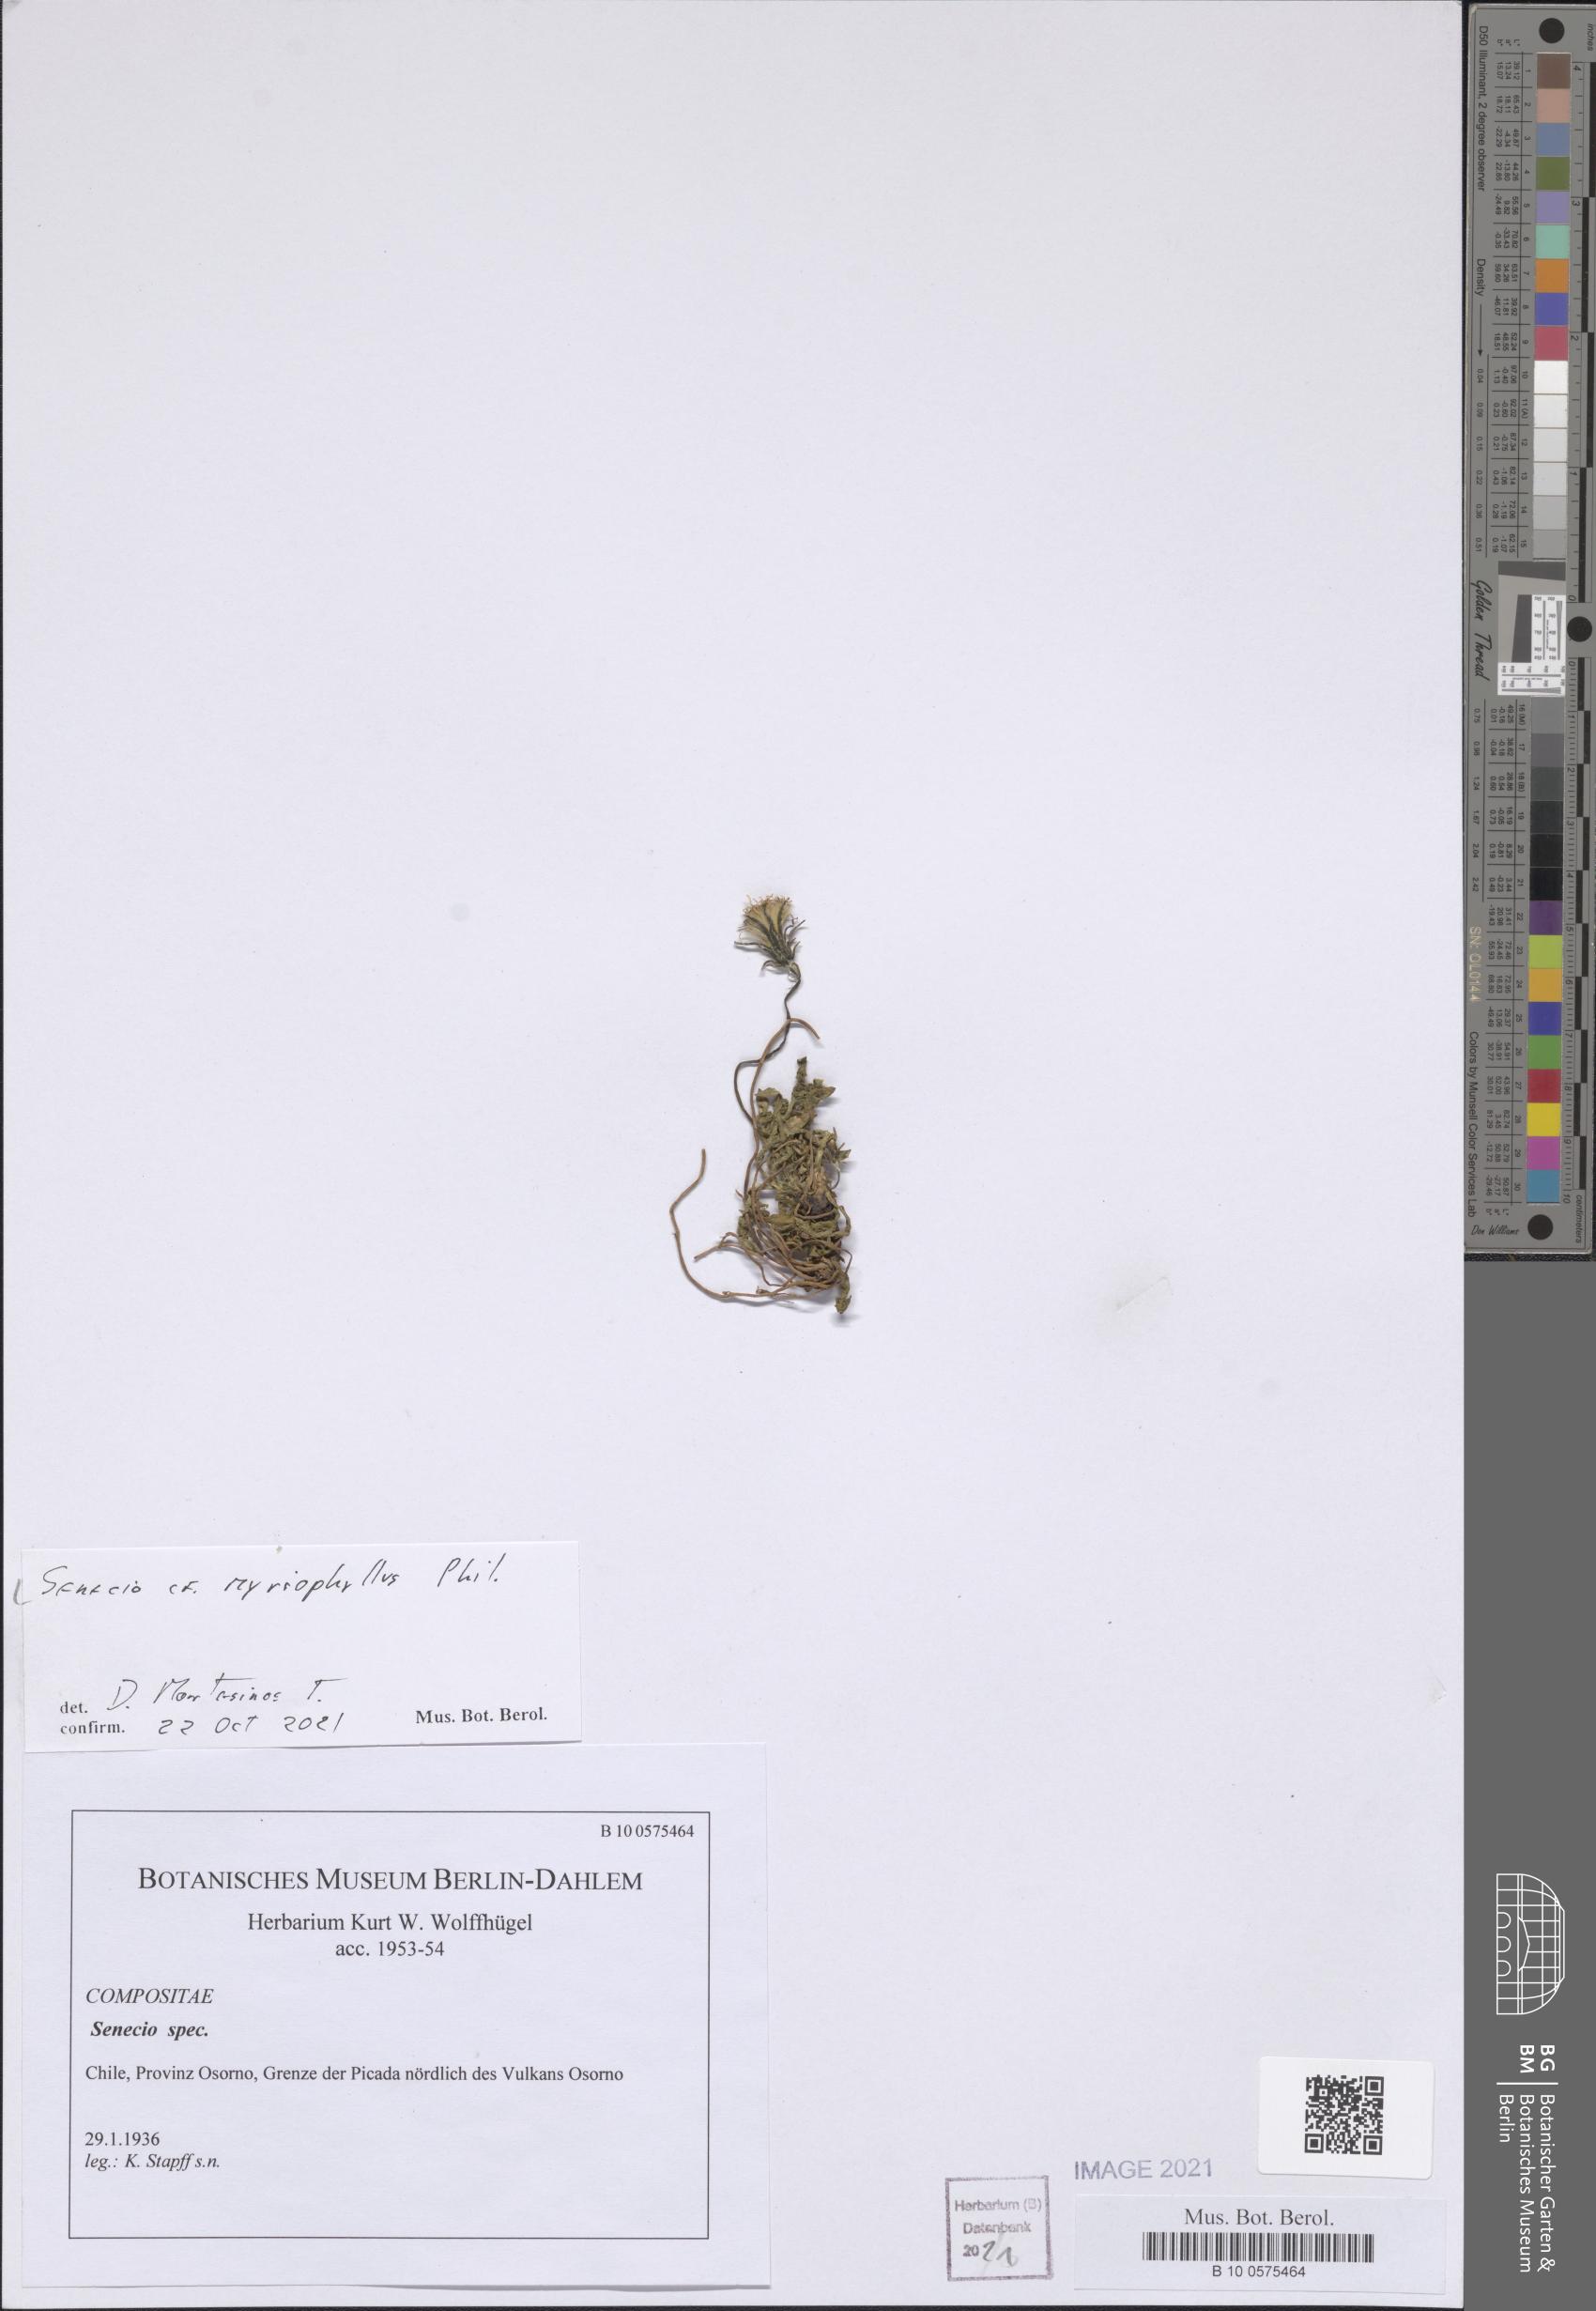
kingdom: Plantae
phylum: Tracheophyta
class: Magnoliopsida
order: Asterales
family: Asteraceae
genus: Senecio
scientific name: Senecio myriophyllus
